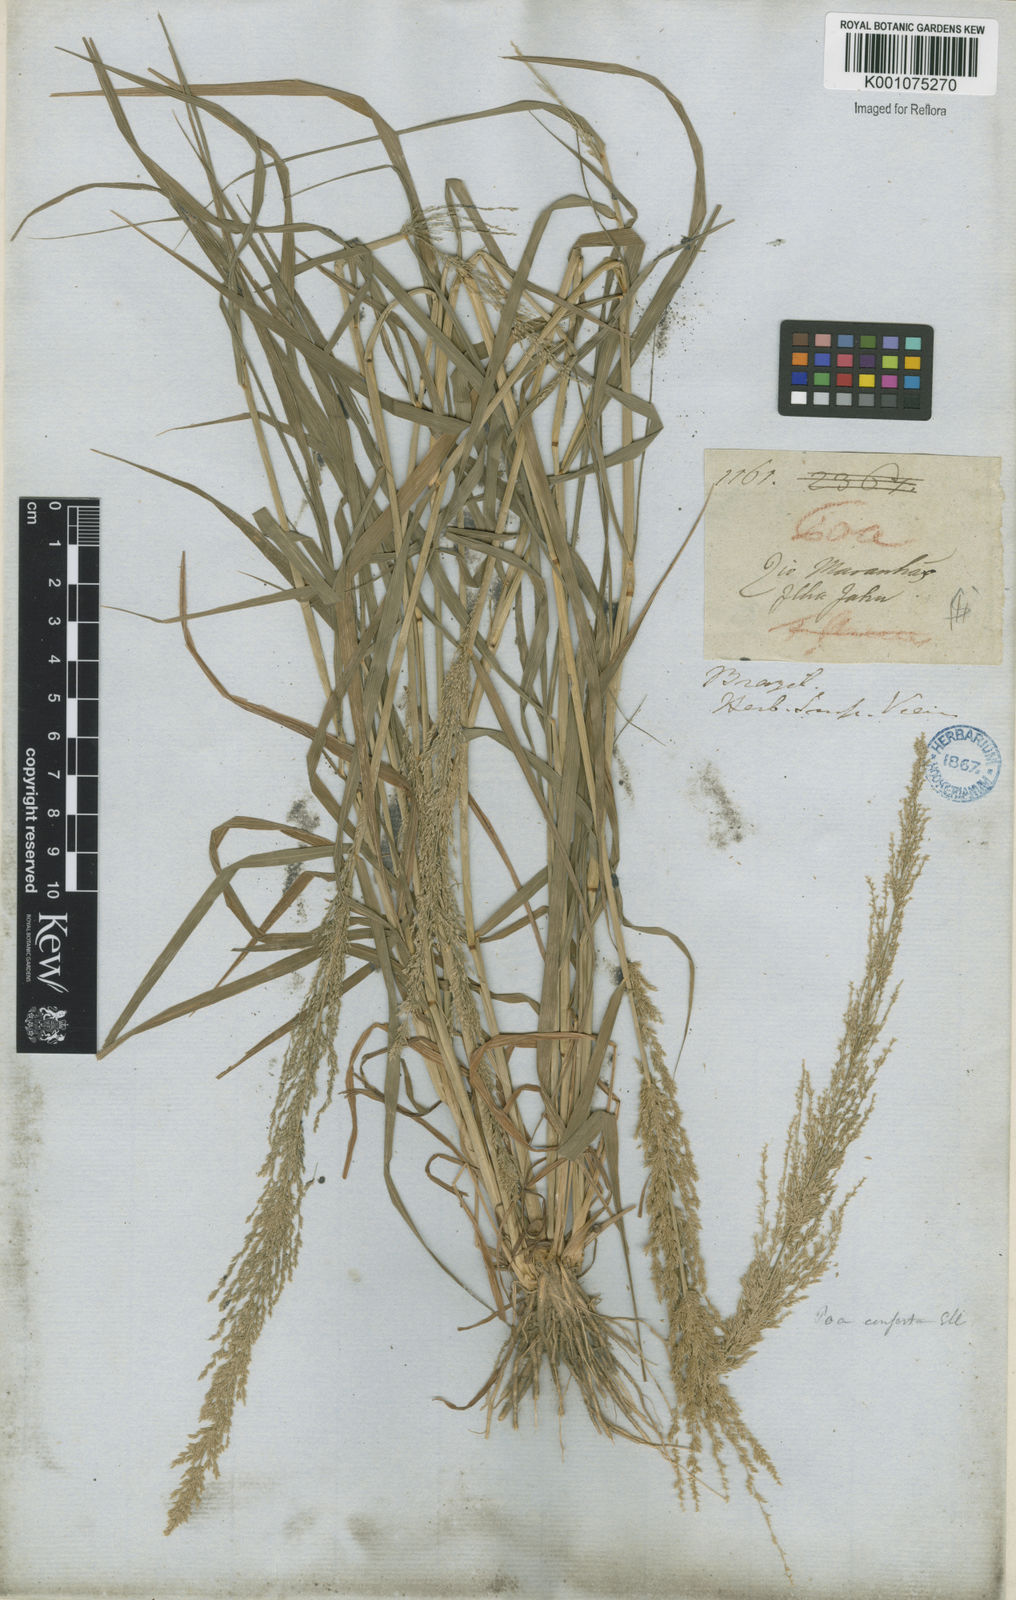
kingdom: Plantae
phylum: Tracheophyta
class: Liliopsida
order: Poales
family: Poaceae
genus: Eragrostis
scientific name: Eragrostis japonica
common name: Pond lovegrass
